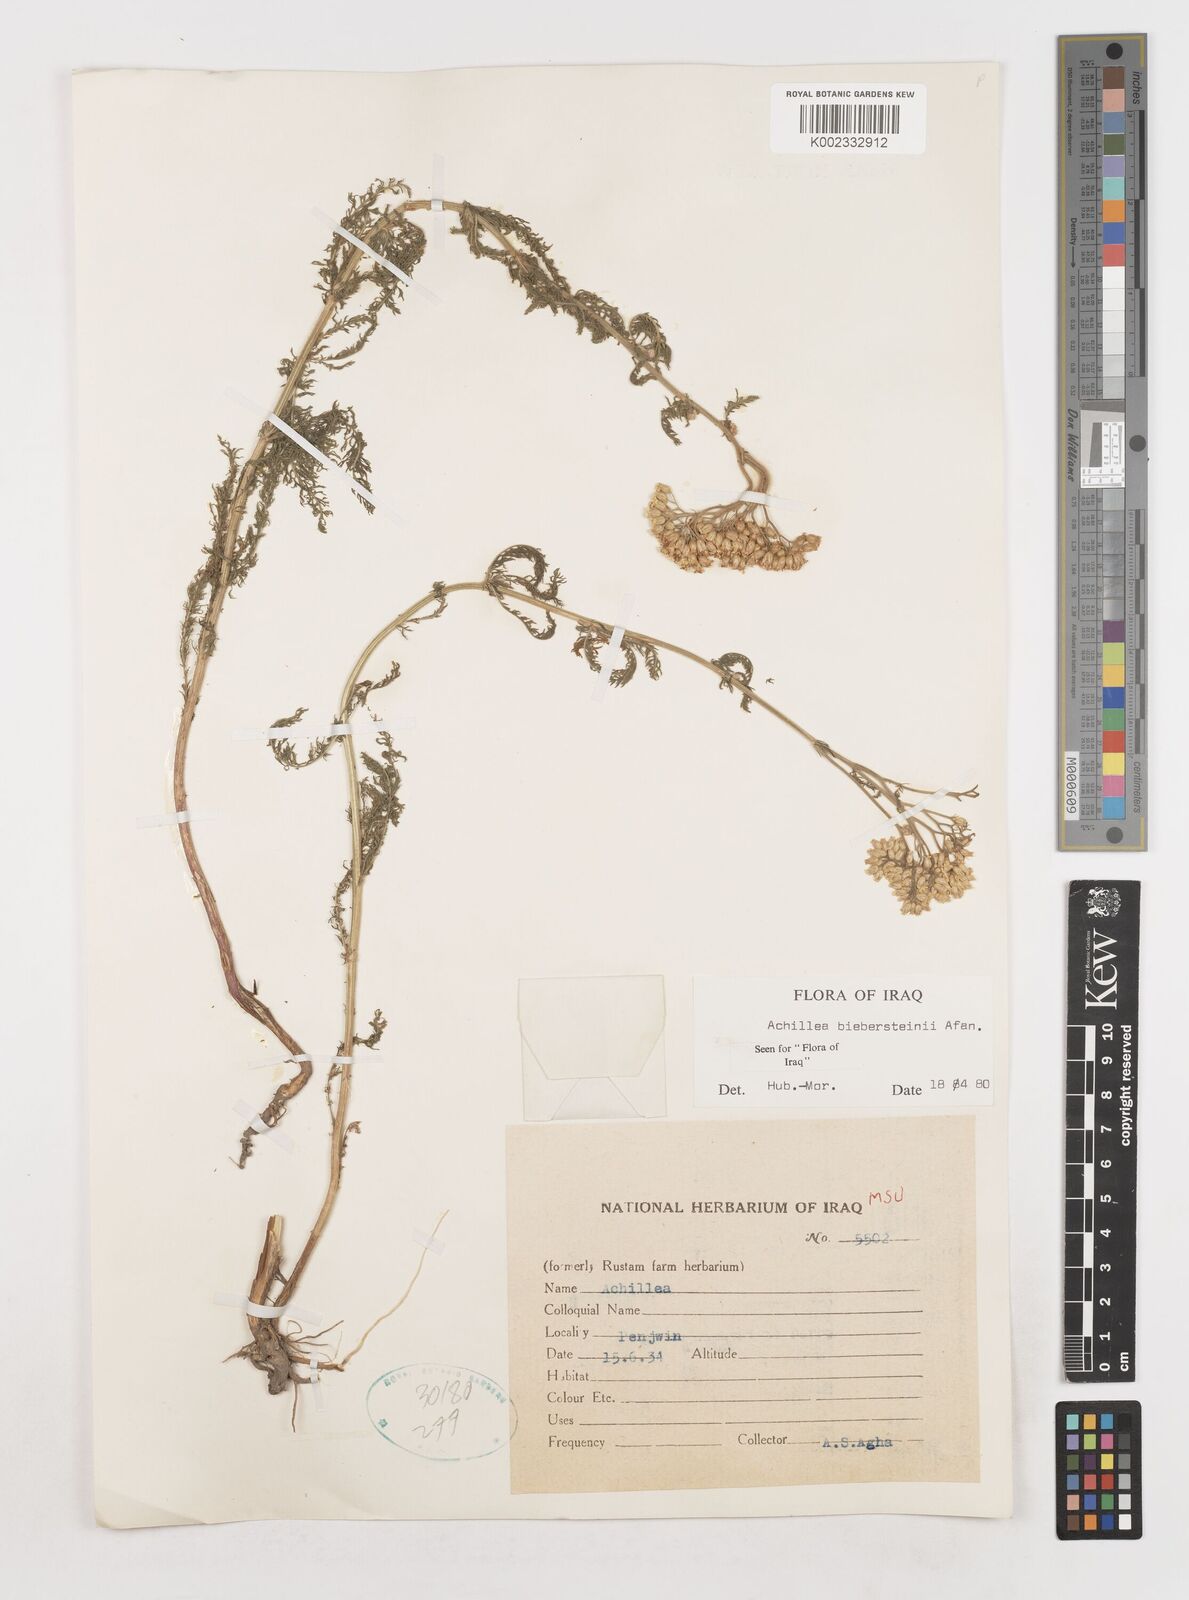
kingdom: Plantae
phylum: Tracheophyta
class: Magnoliopsida
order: Asterales
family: Asteraceae
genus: Achillea
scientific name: Achillea arabica
